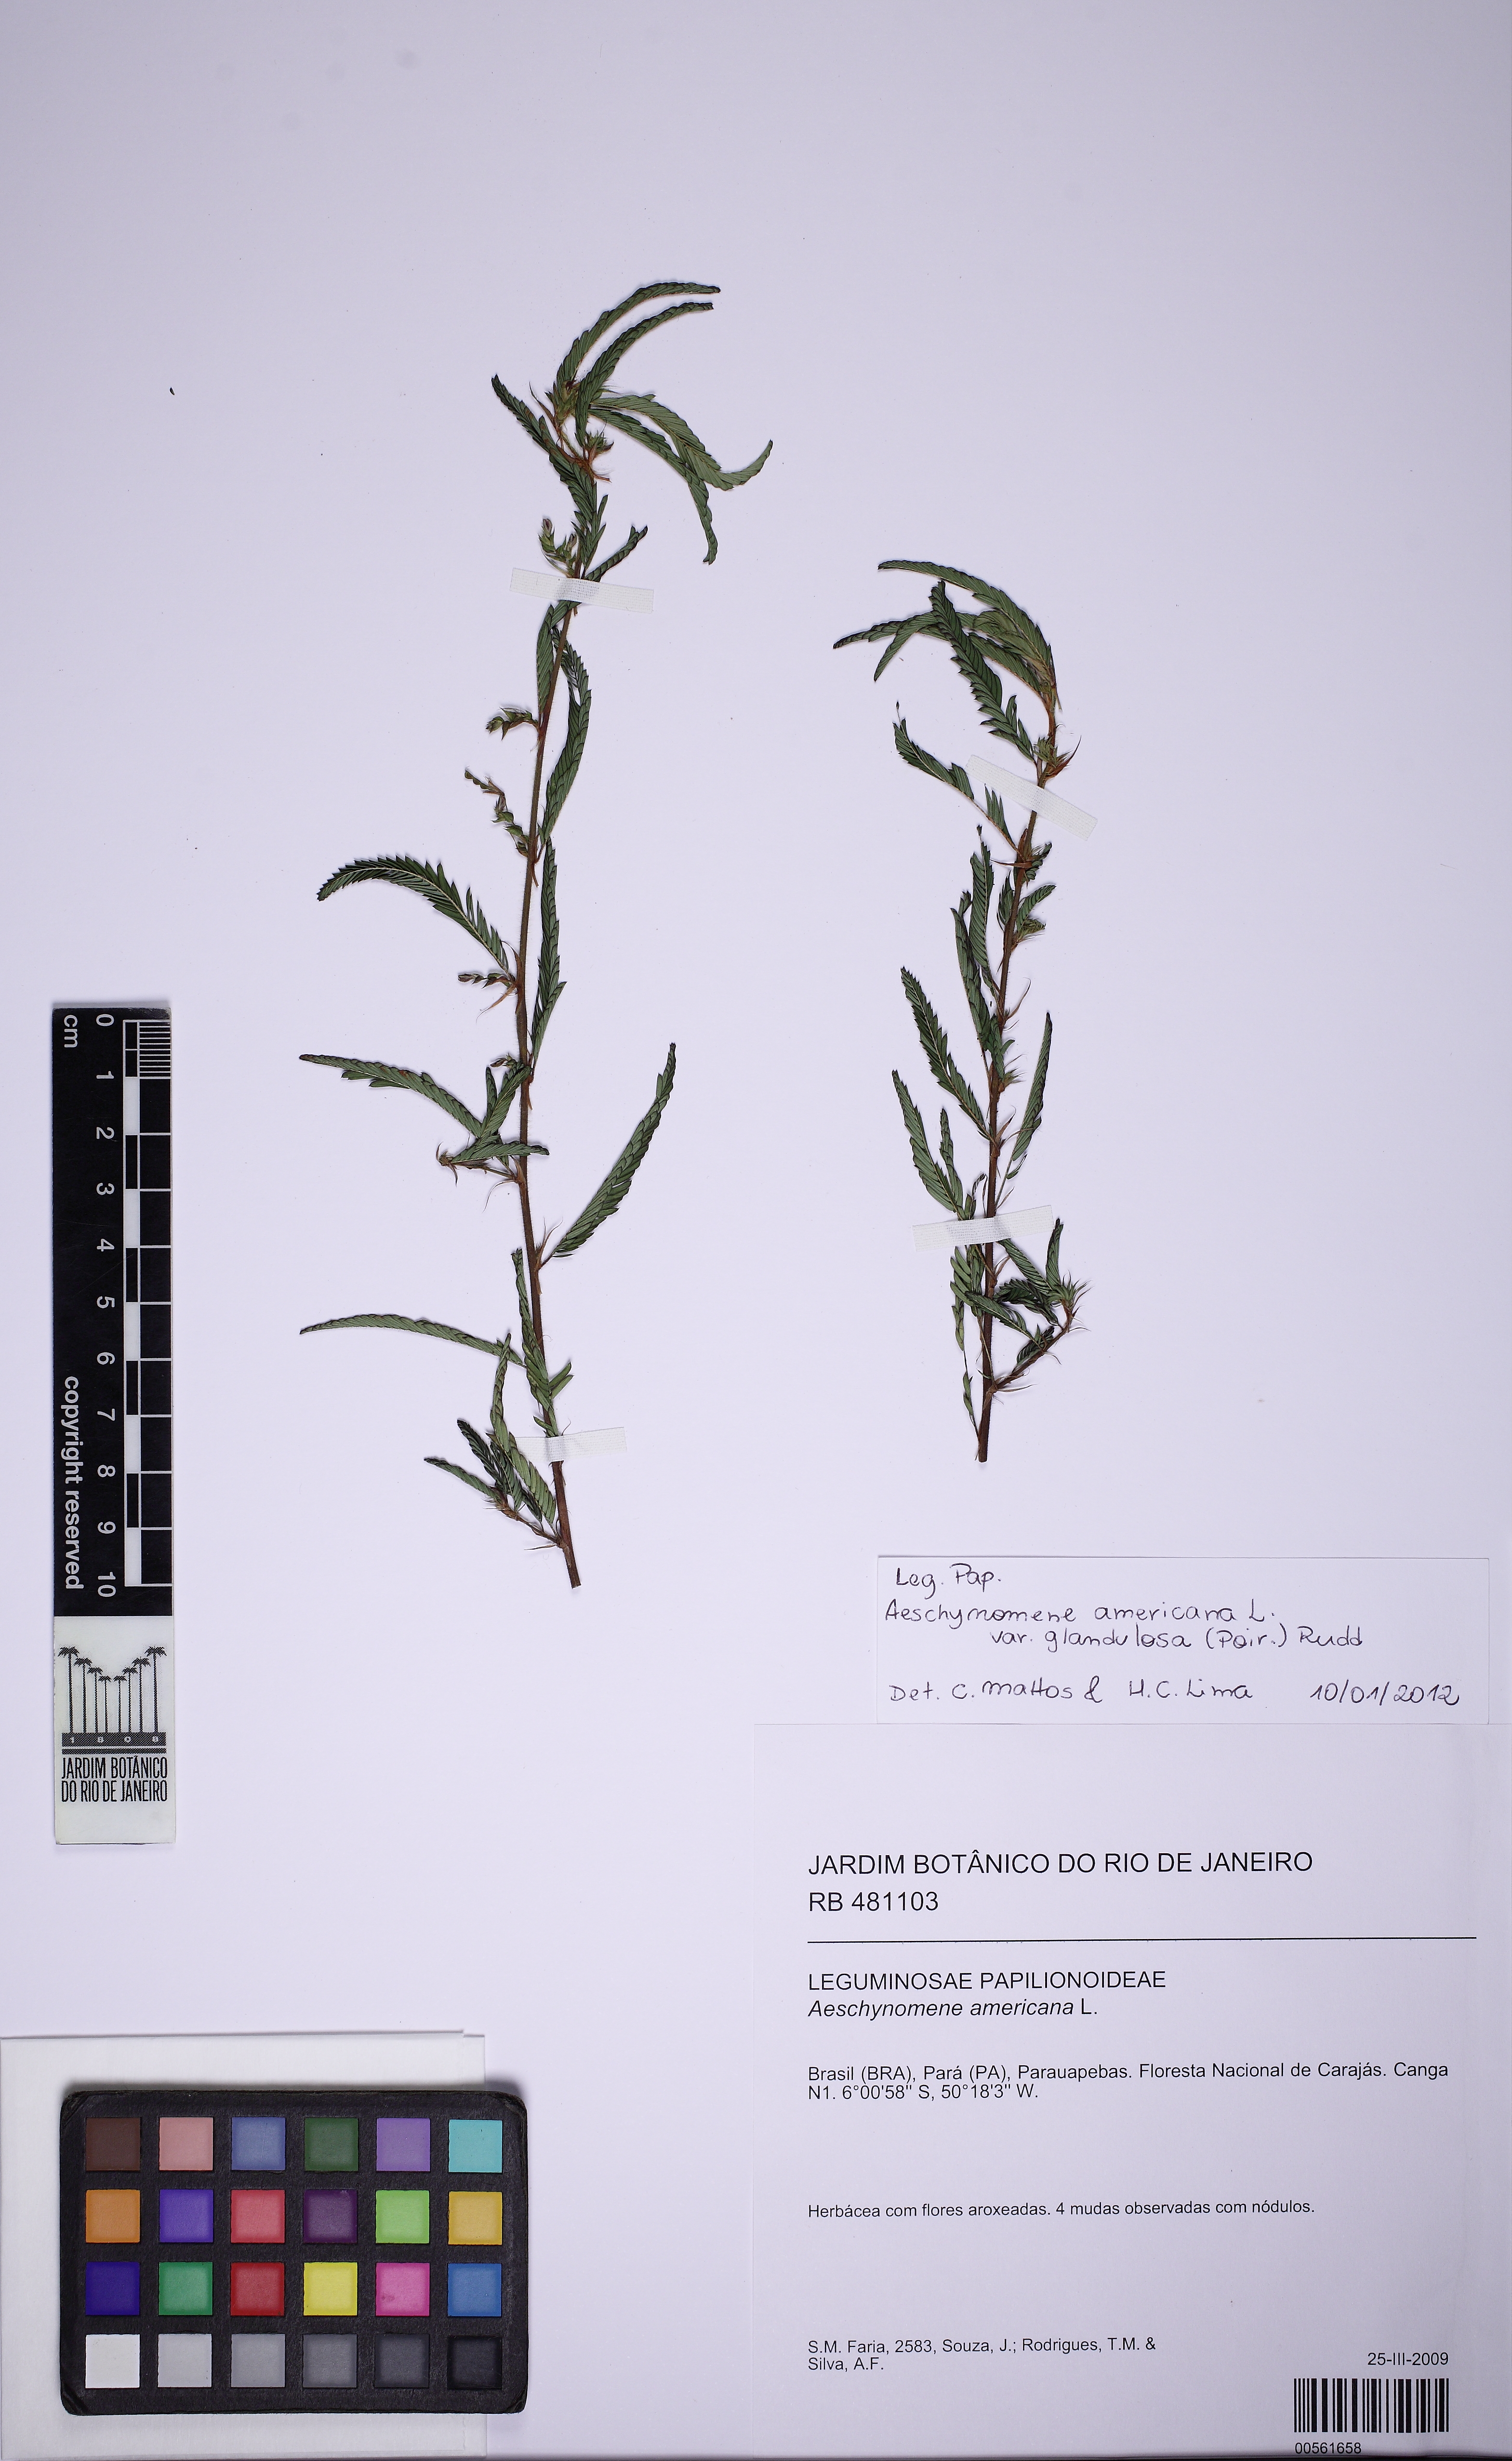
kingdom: Plantae
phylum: Tracheophyta
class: Magnoliopsida
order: Fabales
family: Fabaceae
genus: Aeschynomene
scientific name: Aeschynomene americana
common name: Joint-vetch
